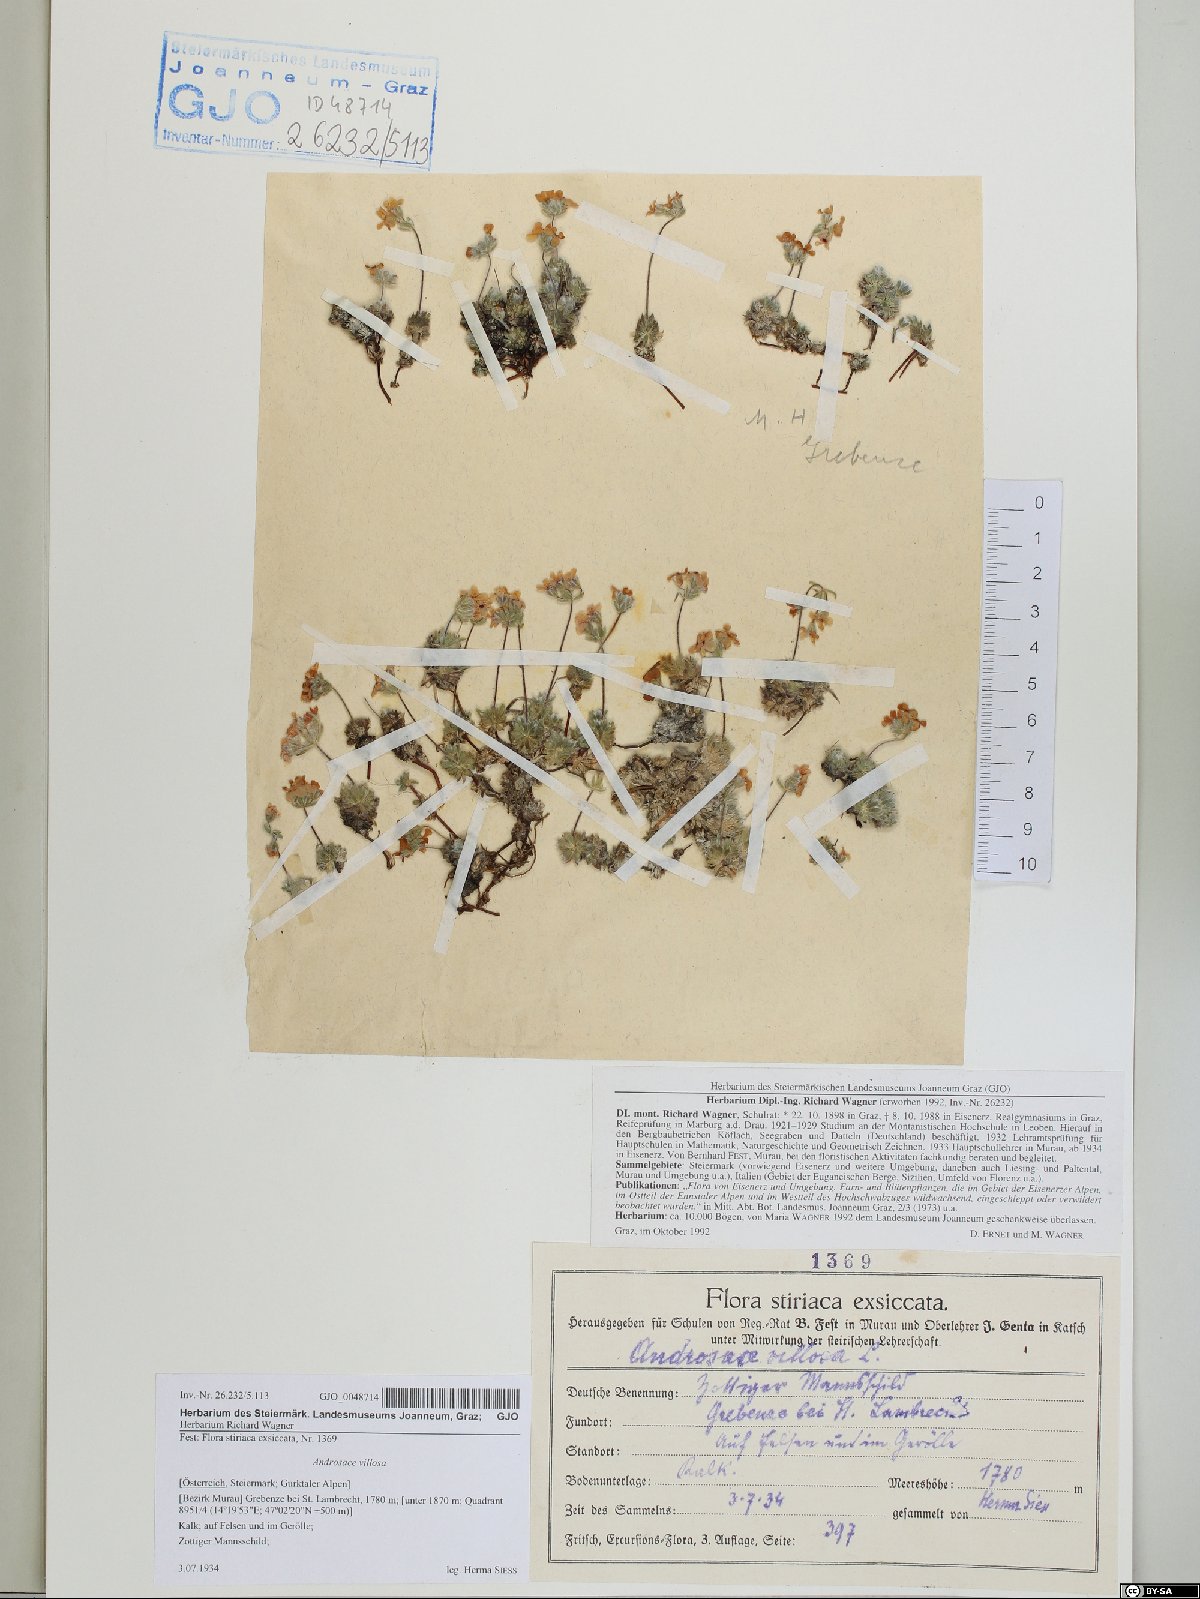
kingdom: Plantae
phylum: Tracheophyta
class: Magnoliopsida
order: Ericales
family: Primulaceae
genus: Androsace
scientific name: Androsace villosa
